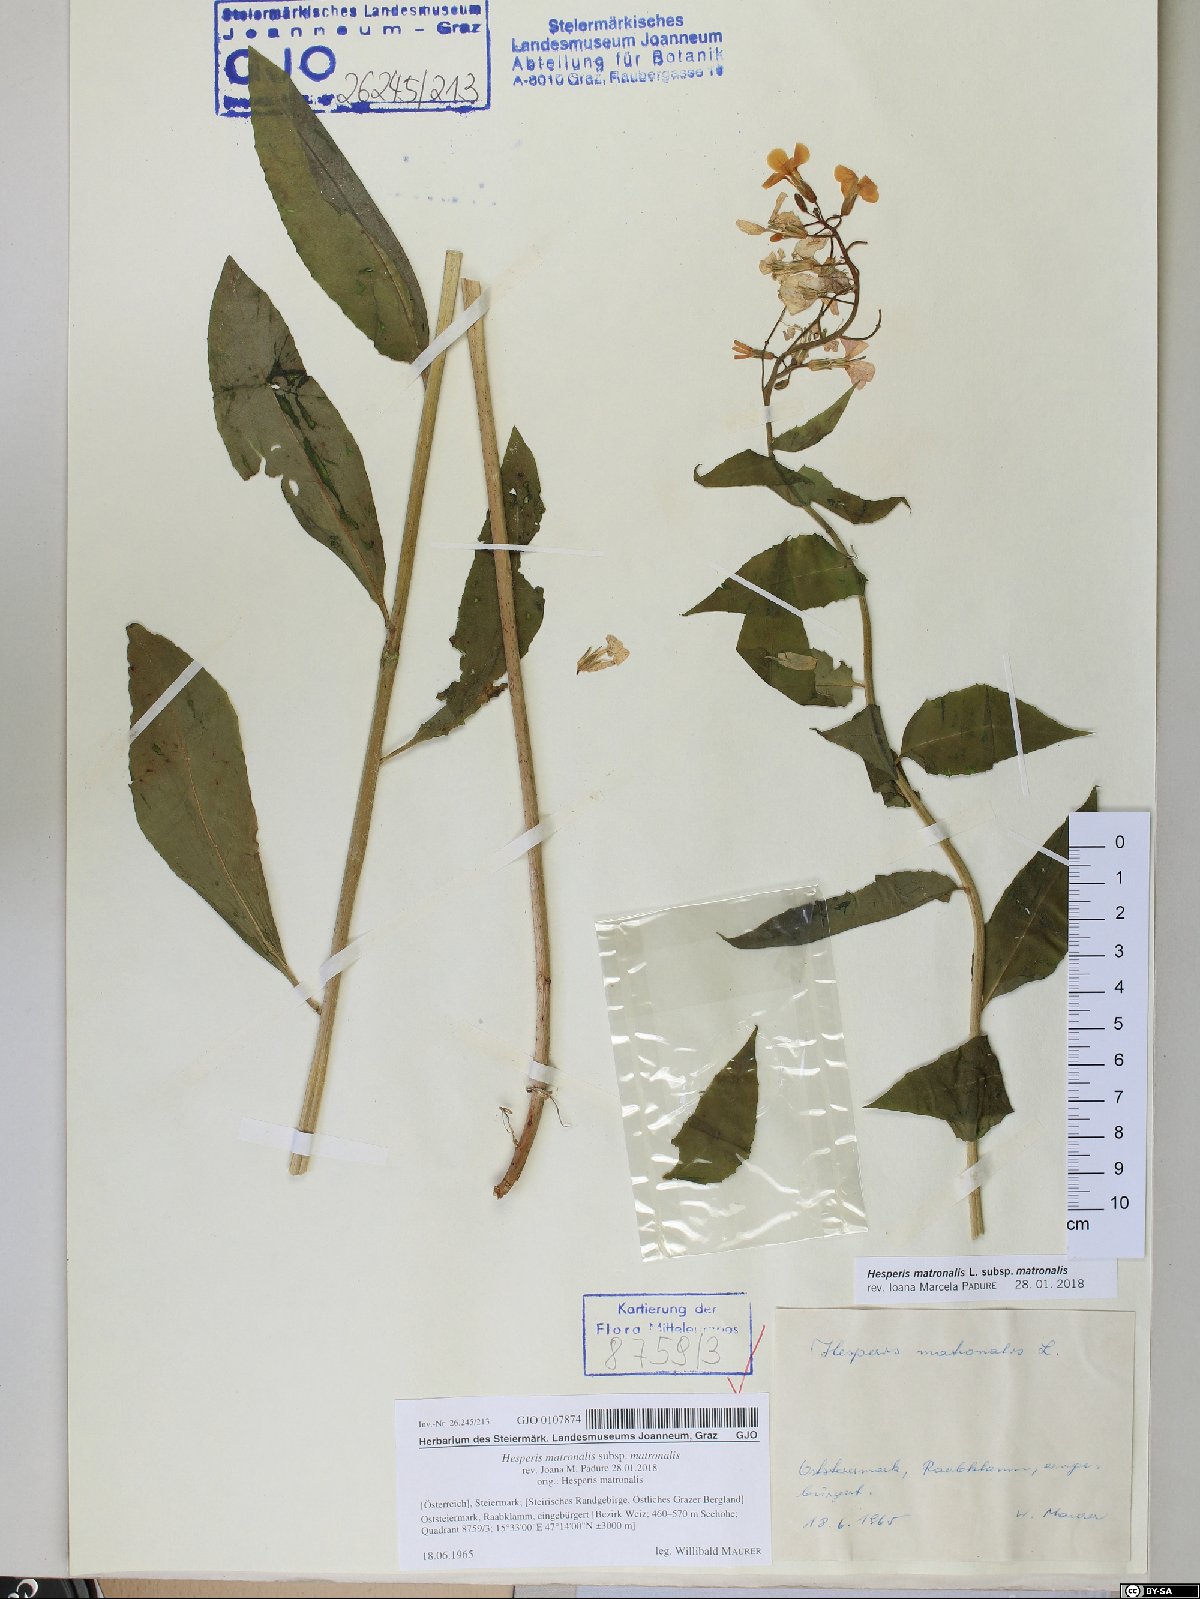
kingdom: Plantae
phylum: Tracheophyta
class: Magnoliopsida
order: Brassicales
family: Brassicaceae
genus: Hesperis
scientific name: Hesperis matronalis
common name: Dame's-violet
